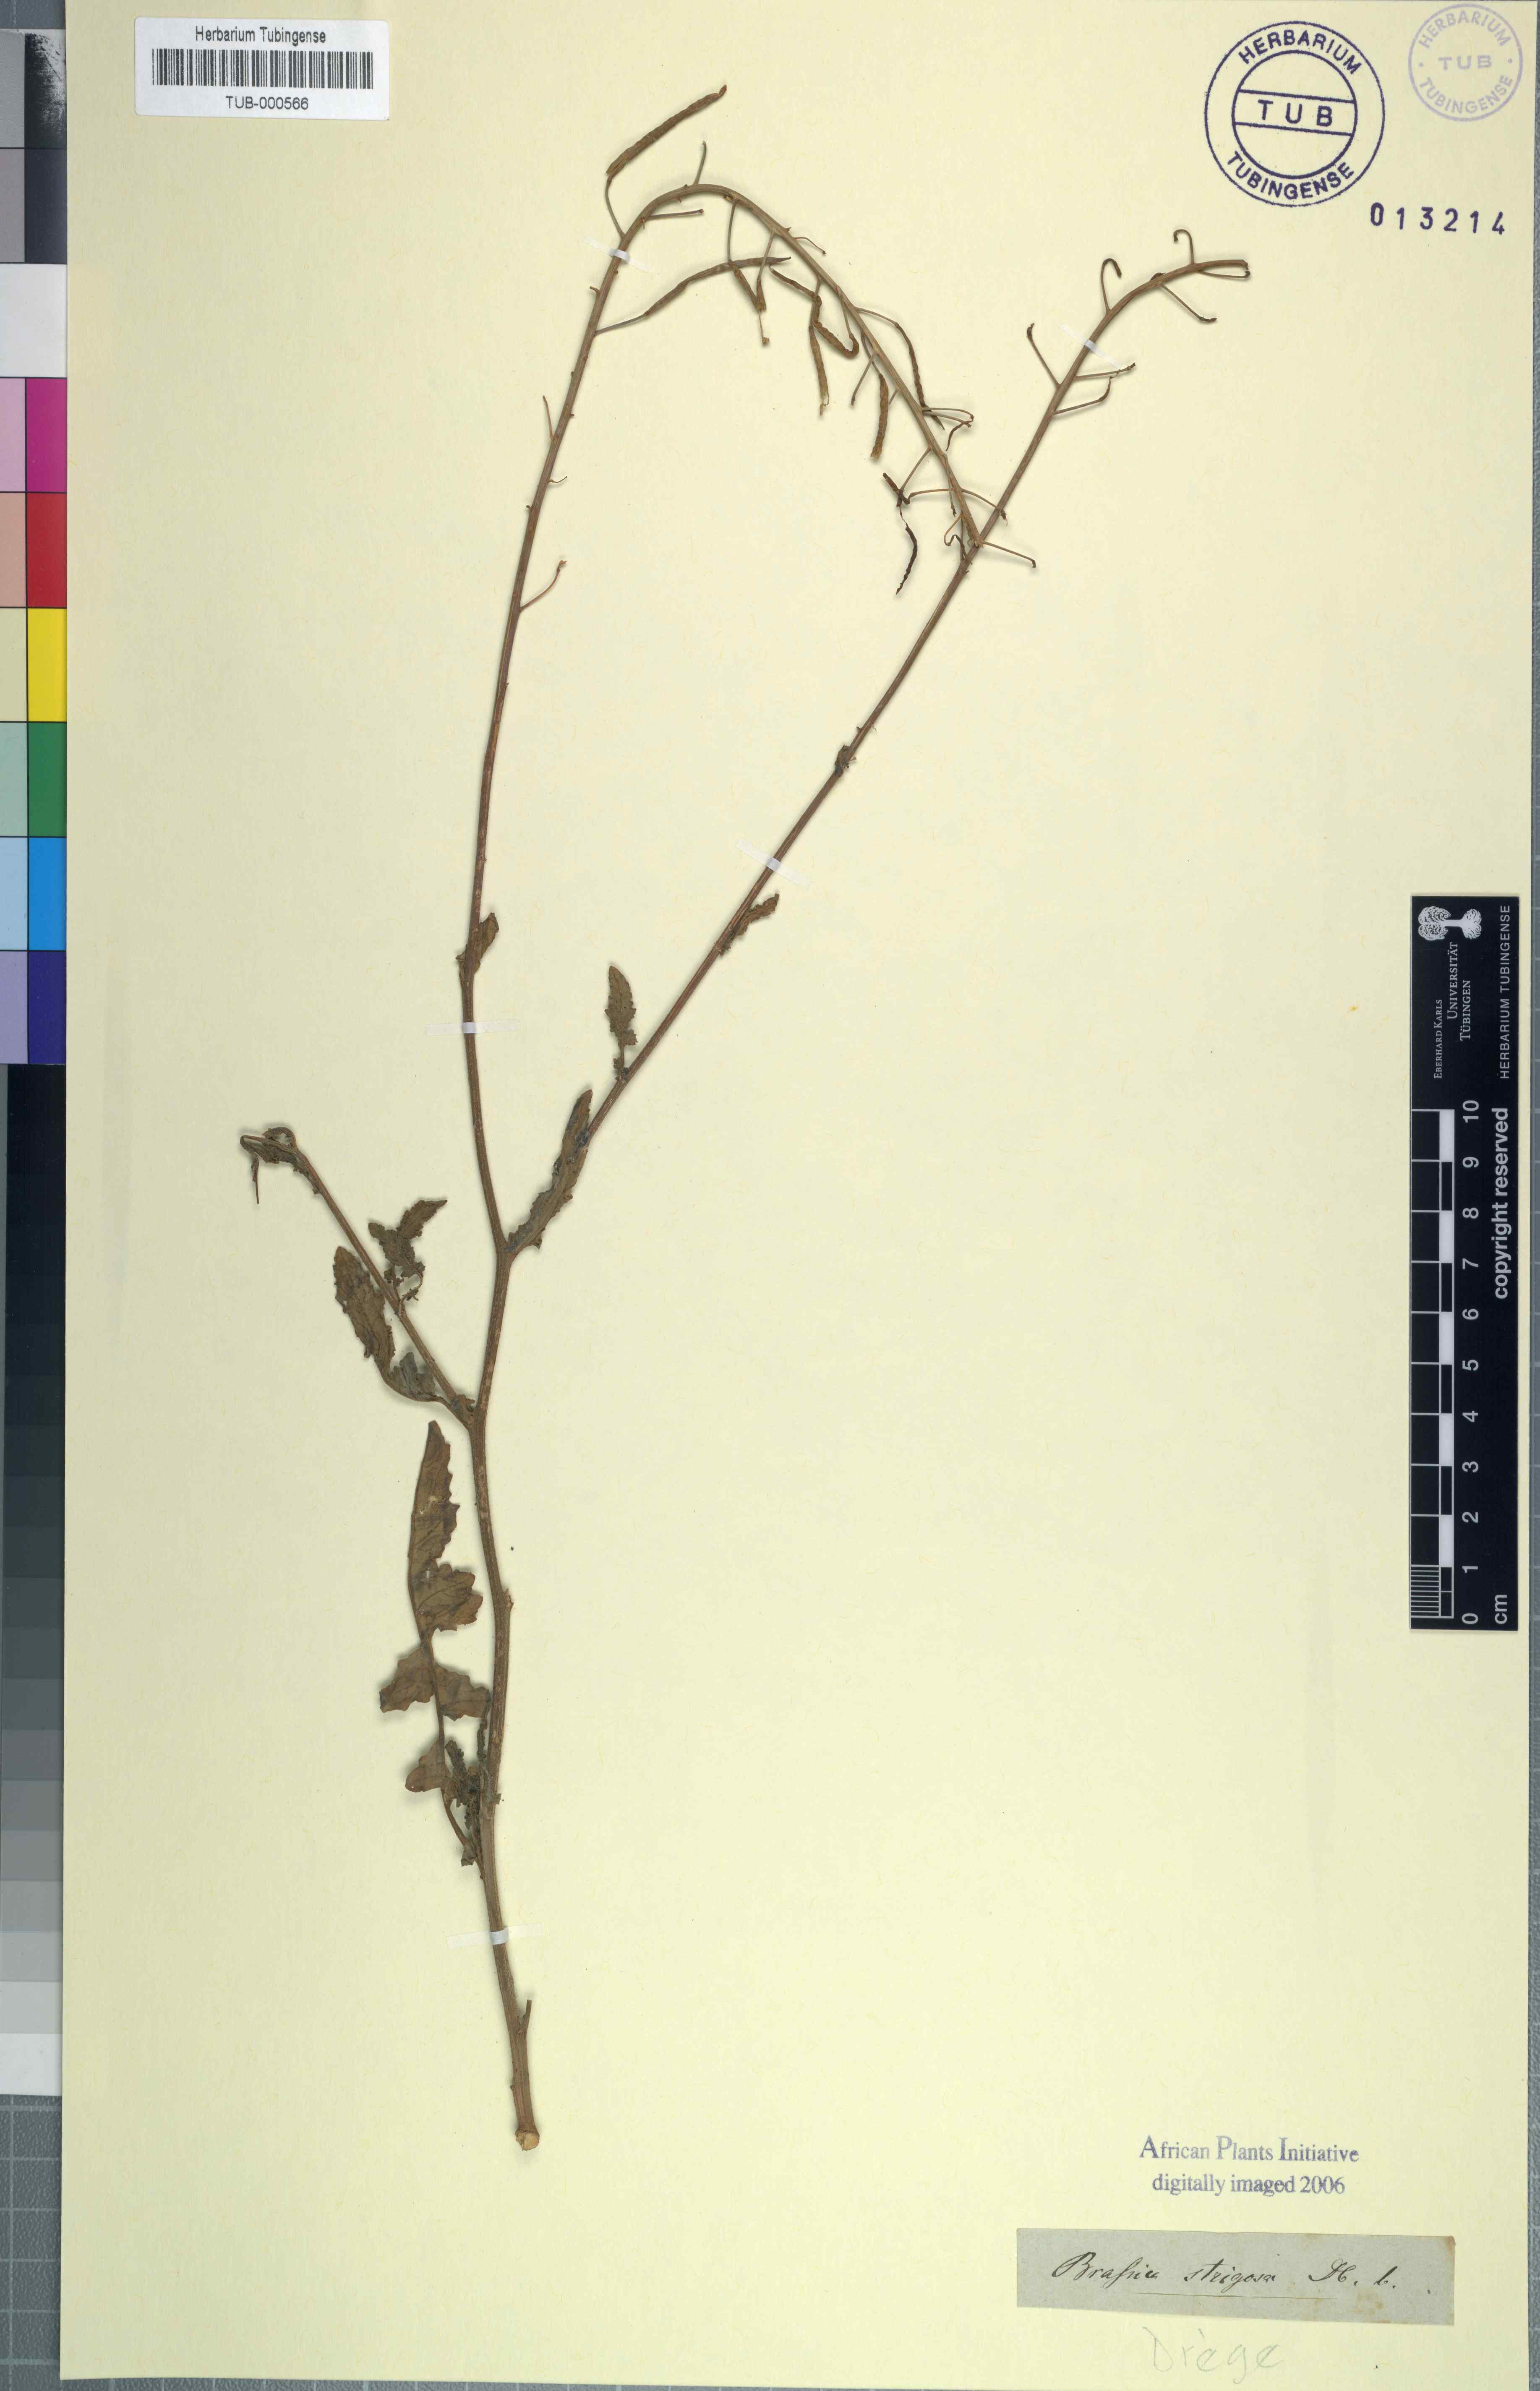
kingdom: Plantae
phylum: Tracheophyta
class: Magnoliopsida
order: Brassicales
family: Brassicaceae
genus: Erucastrum
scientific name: Erucastrum strigosum
